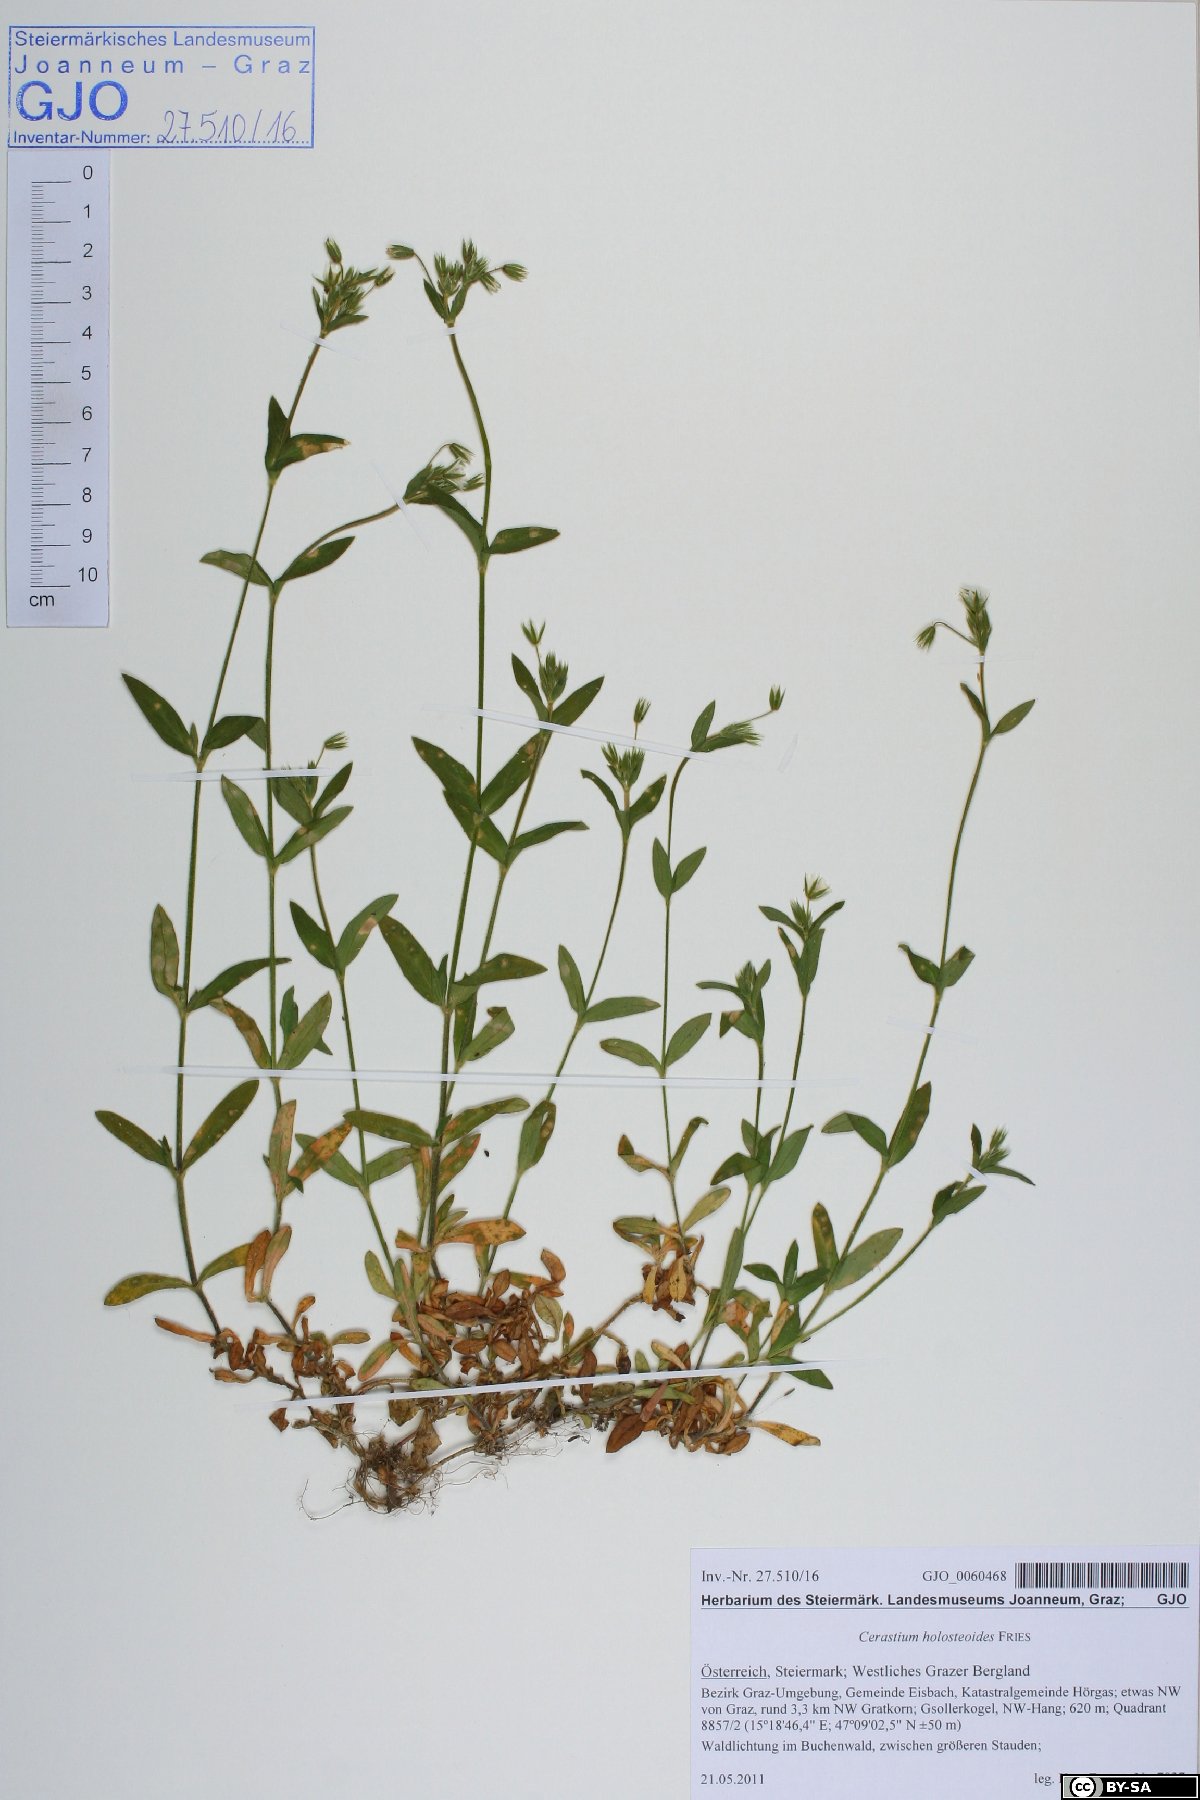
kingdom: Plantae
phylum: Tracheophyta
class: Magnoliopsida
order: Caryophyllales
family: Caryophyllaceae
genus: Cerastium
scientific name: Cerastium holosteoides
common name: Big chickweed
